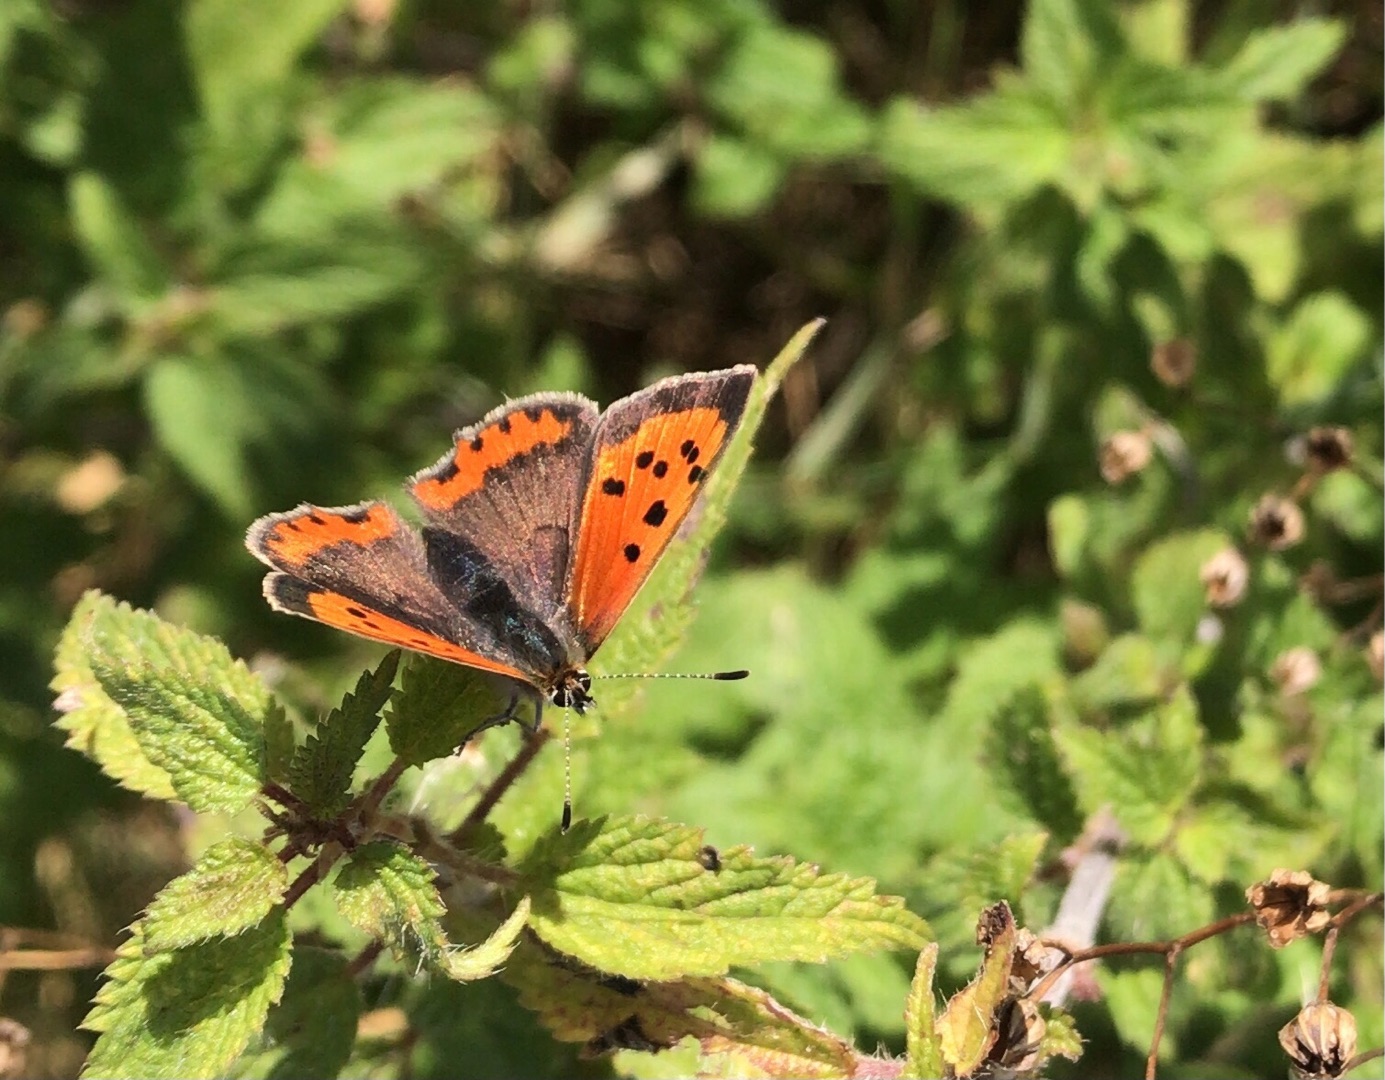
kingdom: Animalia
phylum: Arthropoda
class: Insecta
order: Lepidoptera
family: Lycaenidae
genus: Lycaena
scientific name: Lycaena phlaeas
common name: Lille ildfugl
